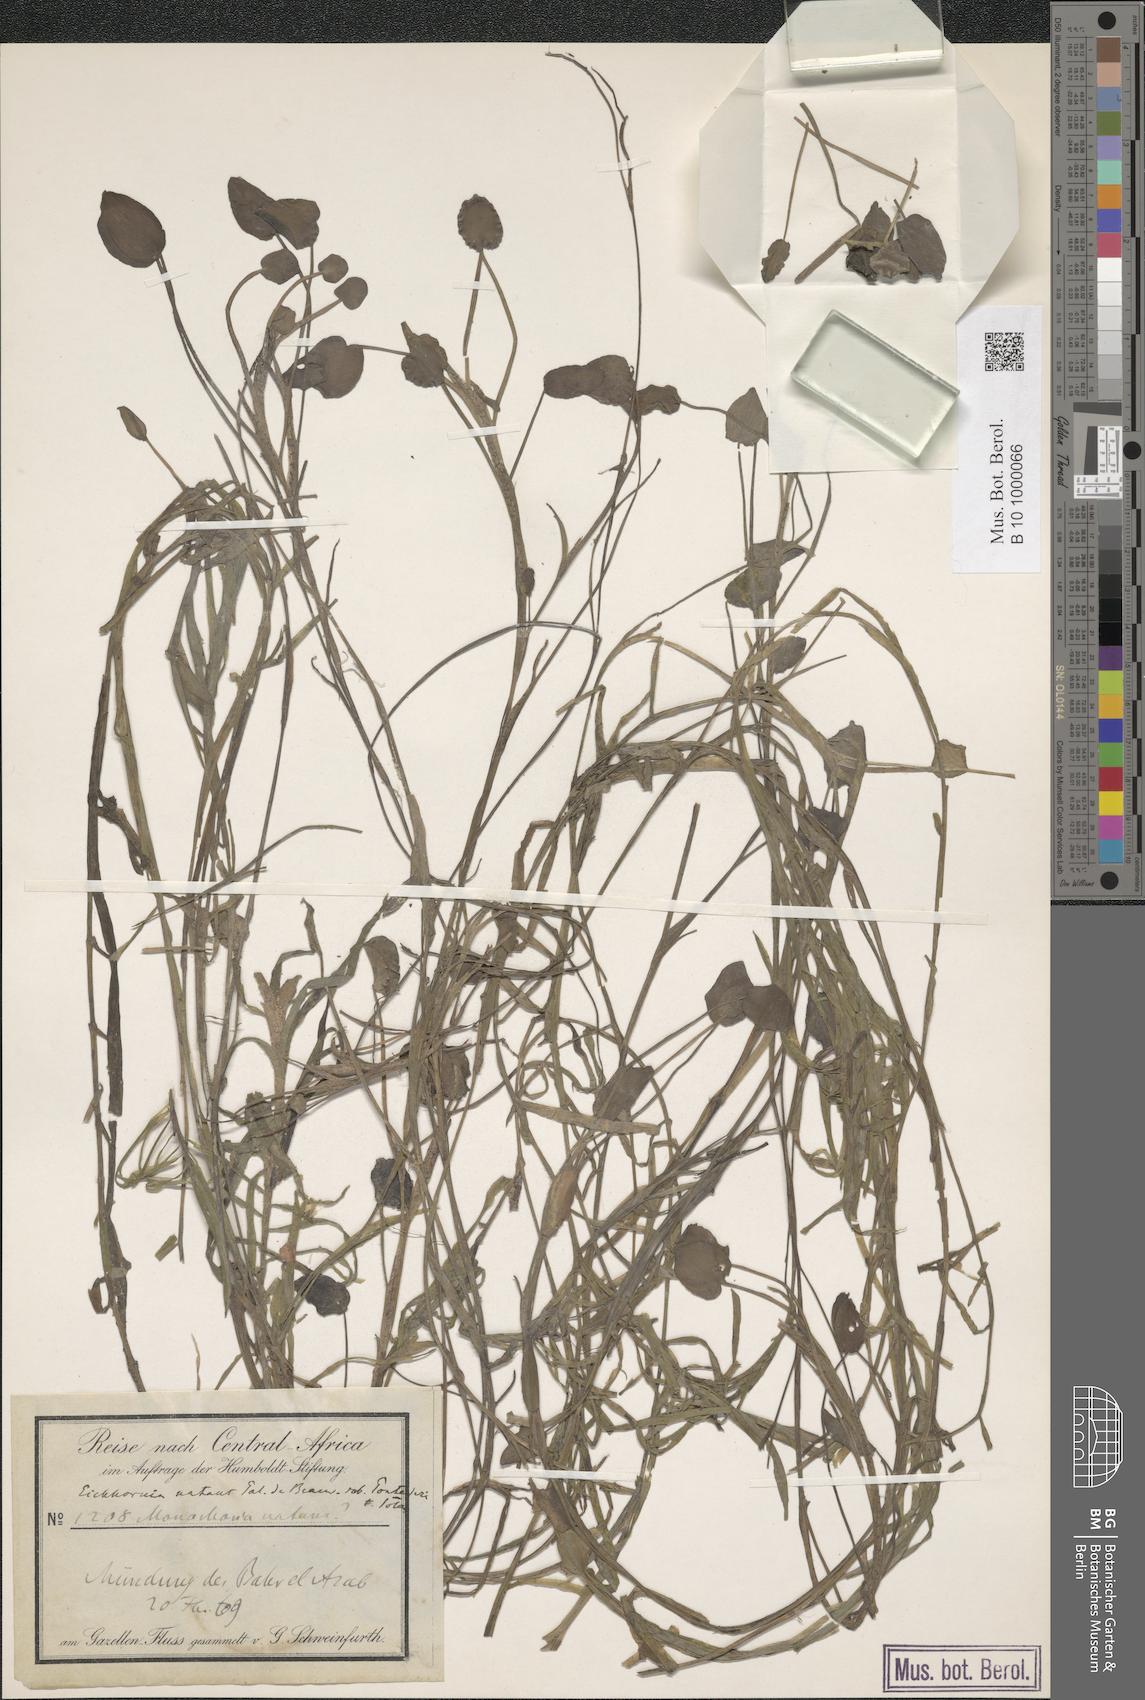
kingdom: Plantae
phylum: Tracheophyta
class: Liliopsida
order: Commelinales
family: Pontederiaceae
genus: Pontederia
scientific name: Pontederia natans
